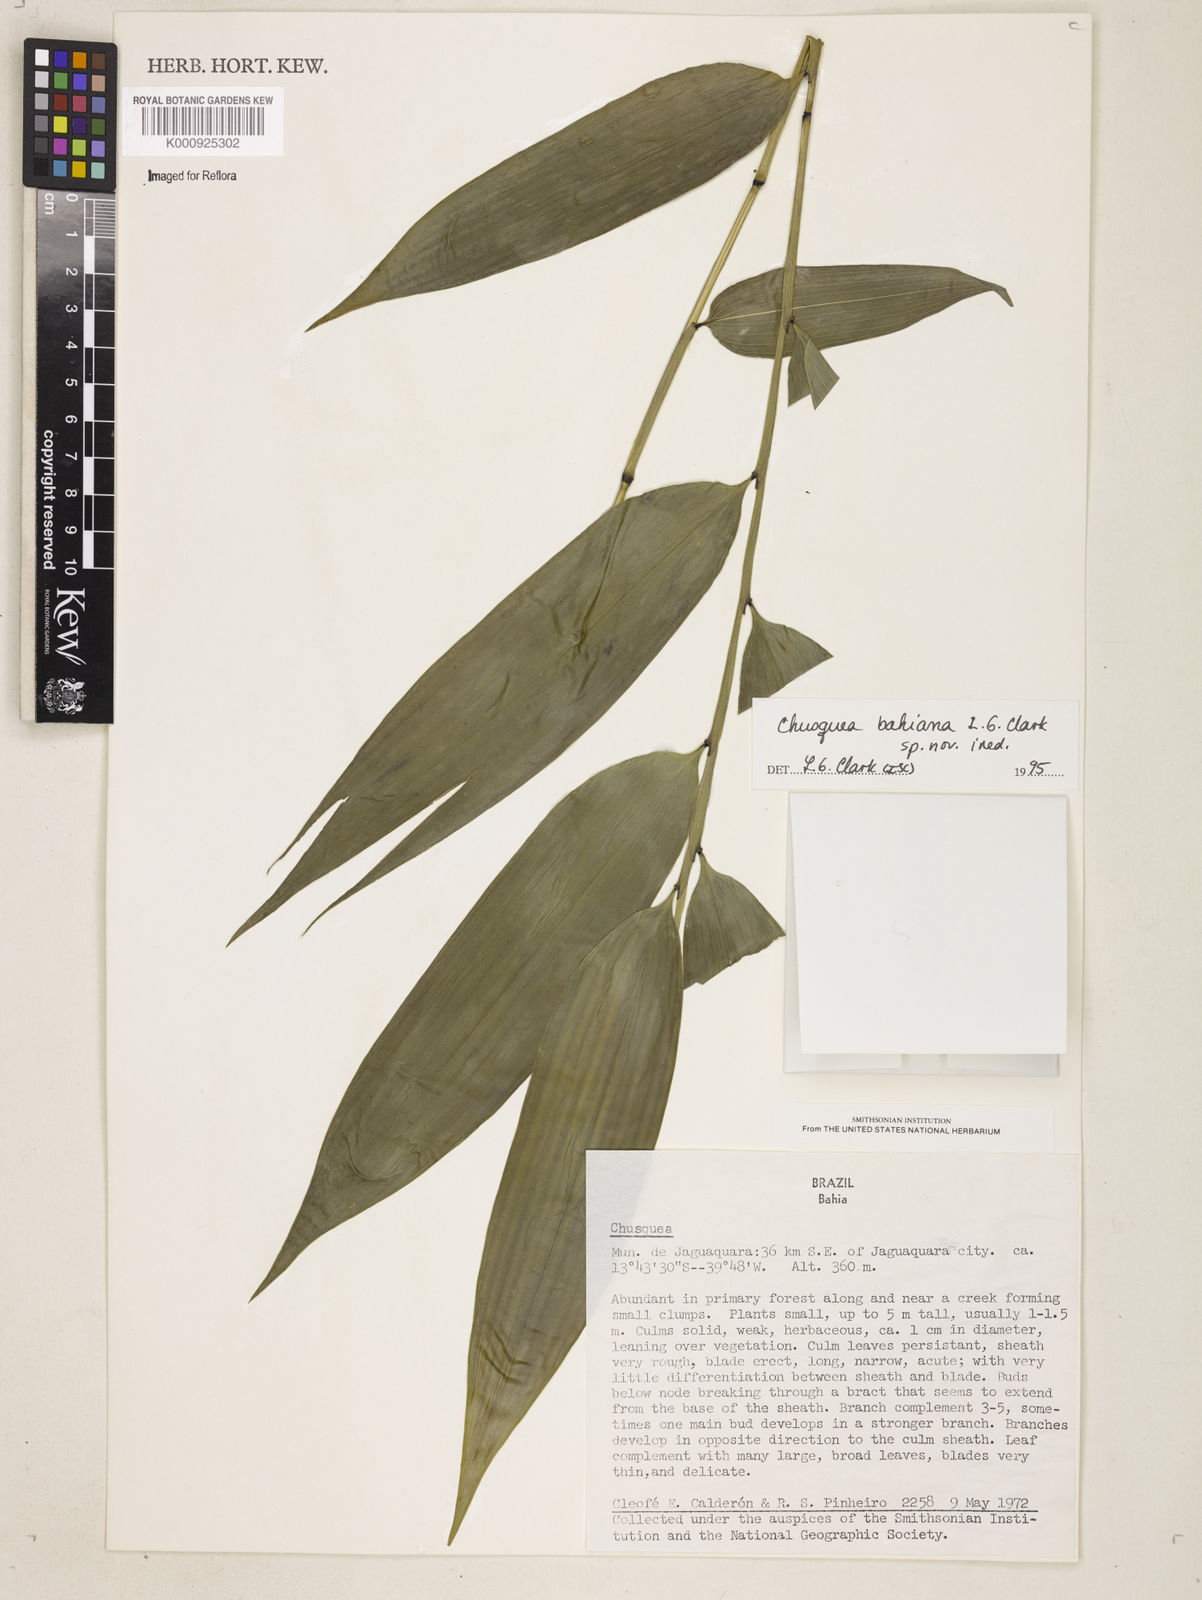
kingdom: Plantae
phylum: Tracheophyta
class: Liliopsida
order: Poales
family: Poaceae
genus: Chusquea
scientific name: Chusquea bahiana
